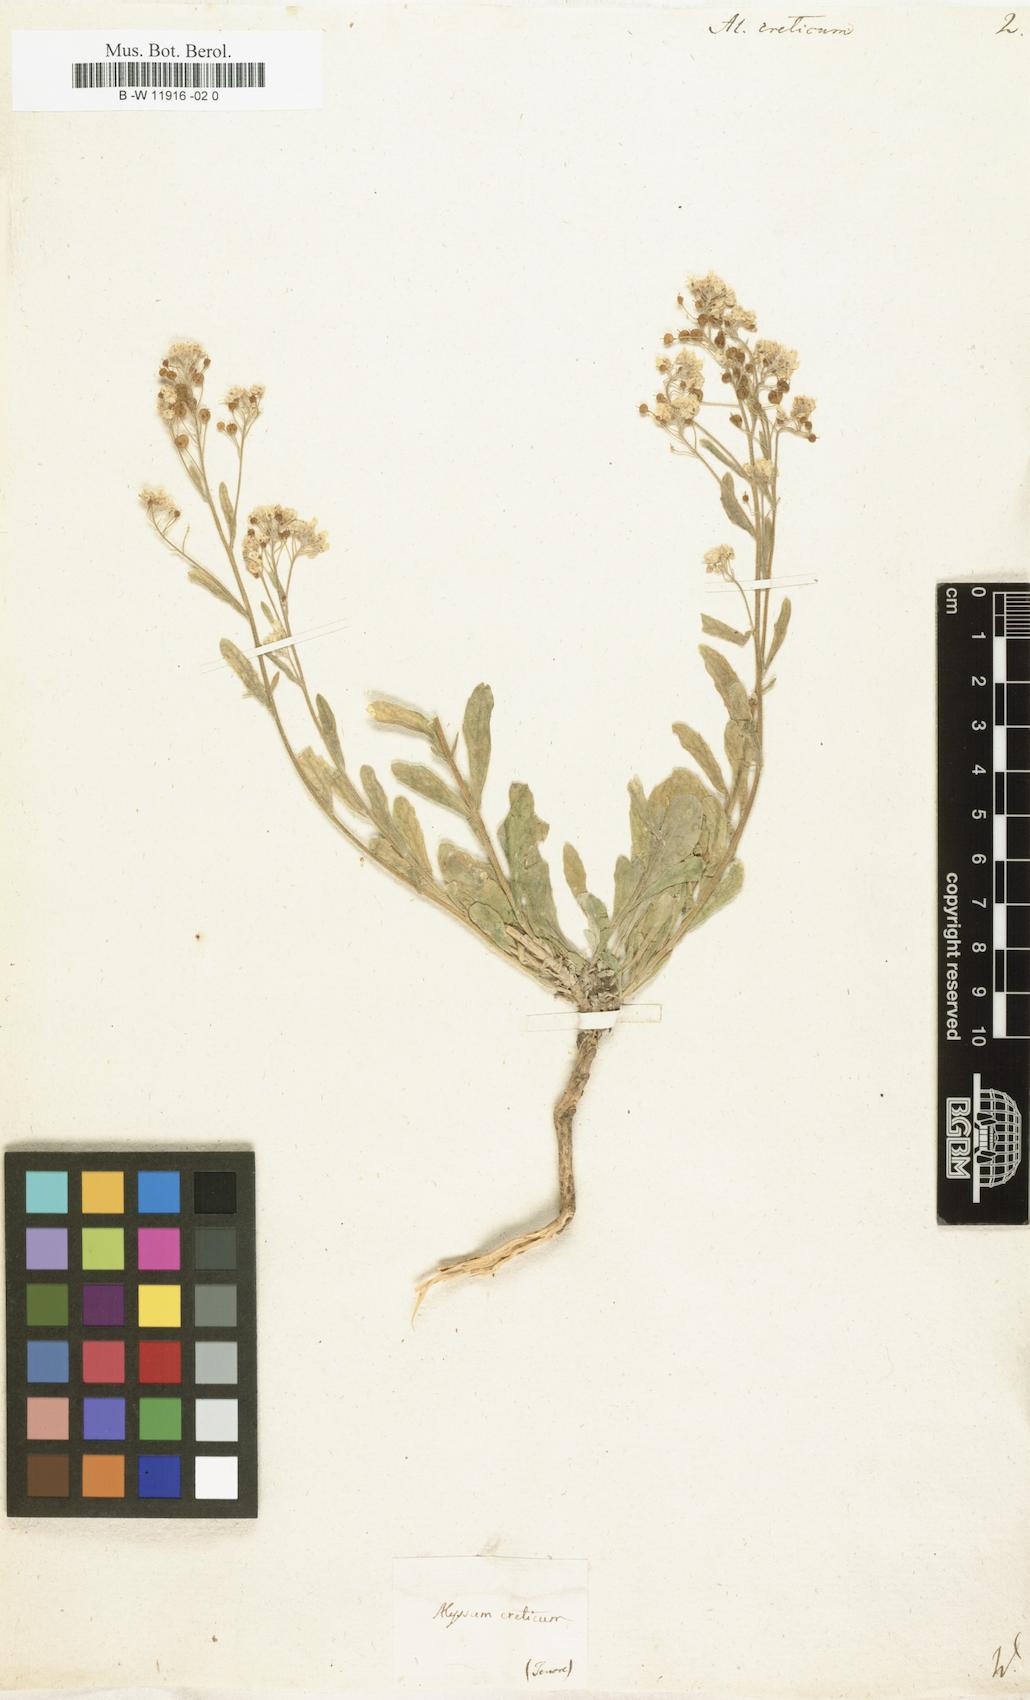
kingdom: Plantae
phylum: Tracheophyta
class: Magnoliopsida
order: Brassicales
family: Brassicaceae
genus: Lutzia
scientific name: Lutzia cretica
